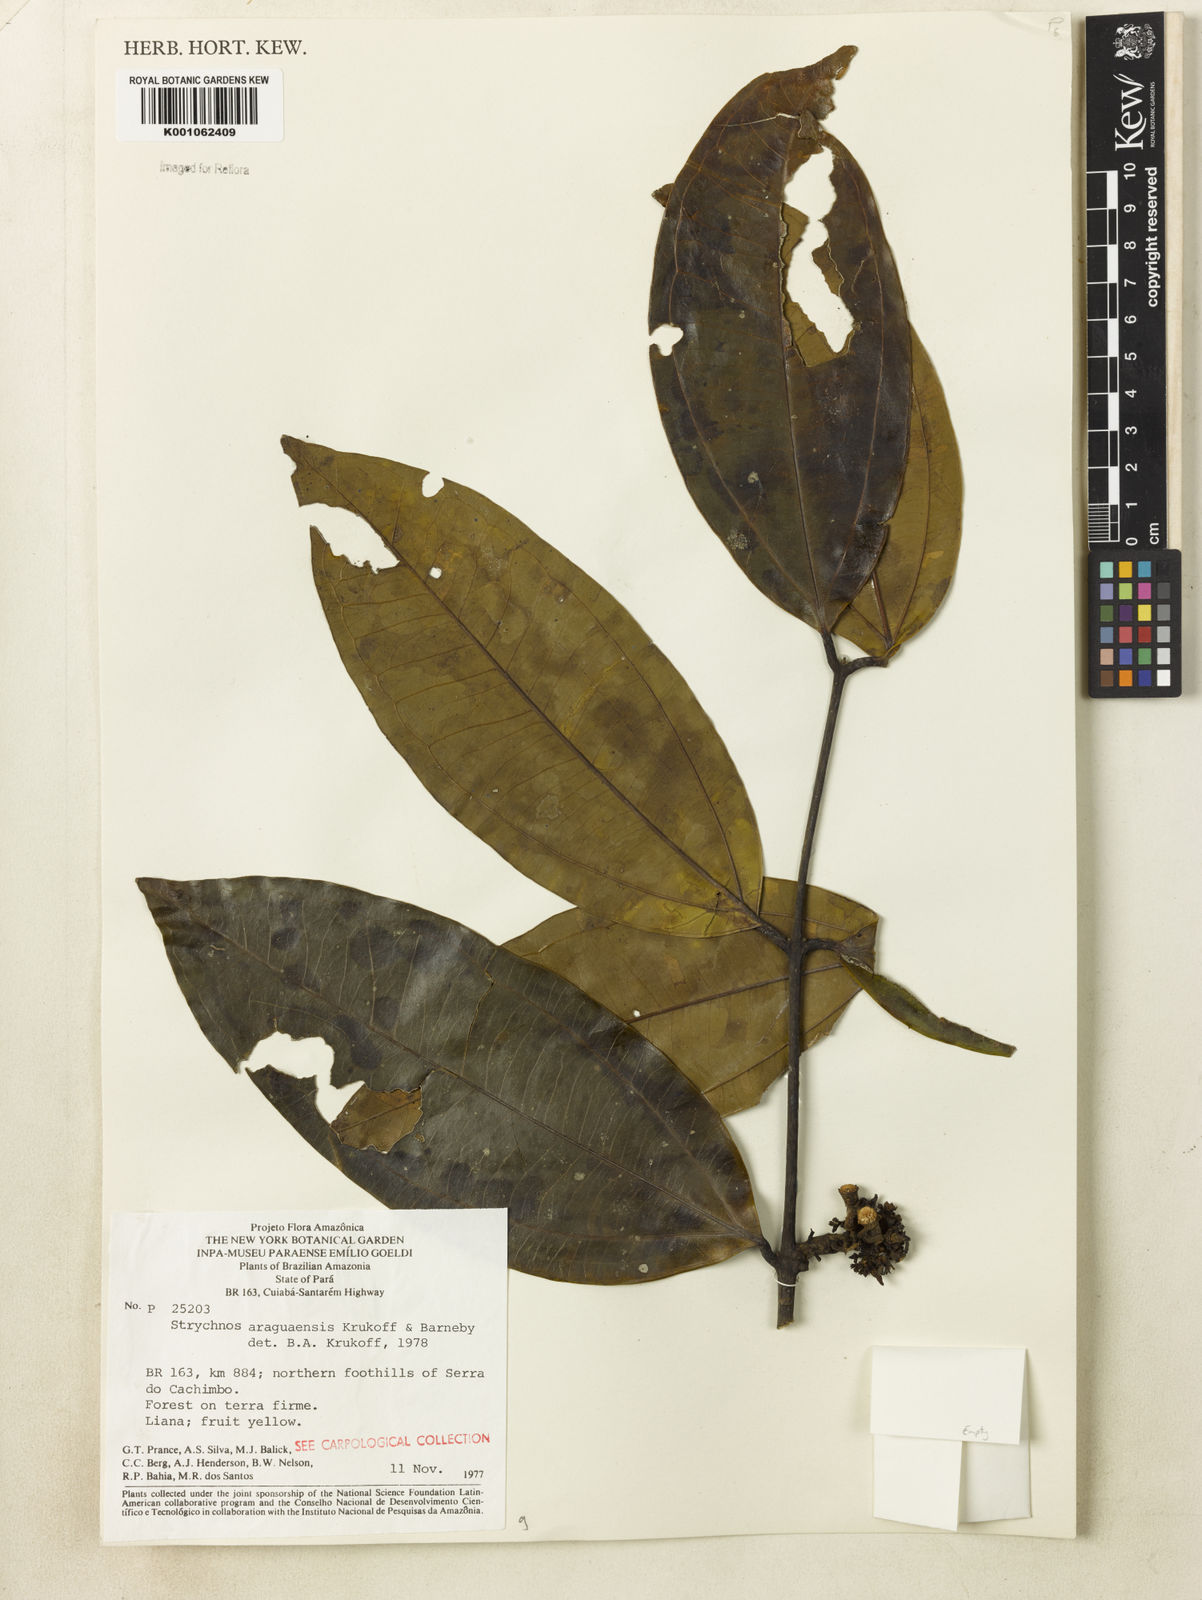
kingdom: Plantae
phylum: Tracheophyta
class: Magnoliopsida
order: Gentianales
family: Loganiaceae
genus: Strychnos
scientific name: Strychnos araguaensis
